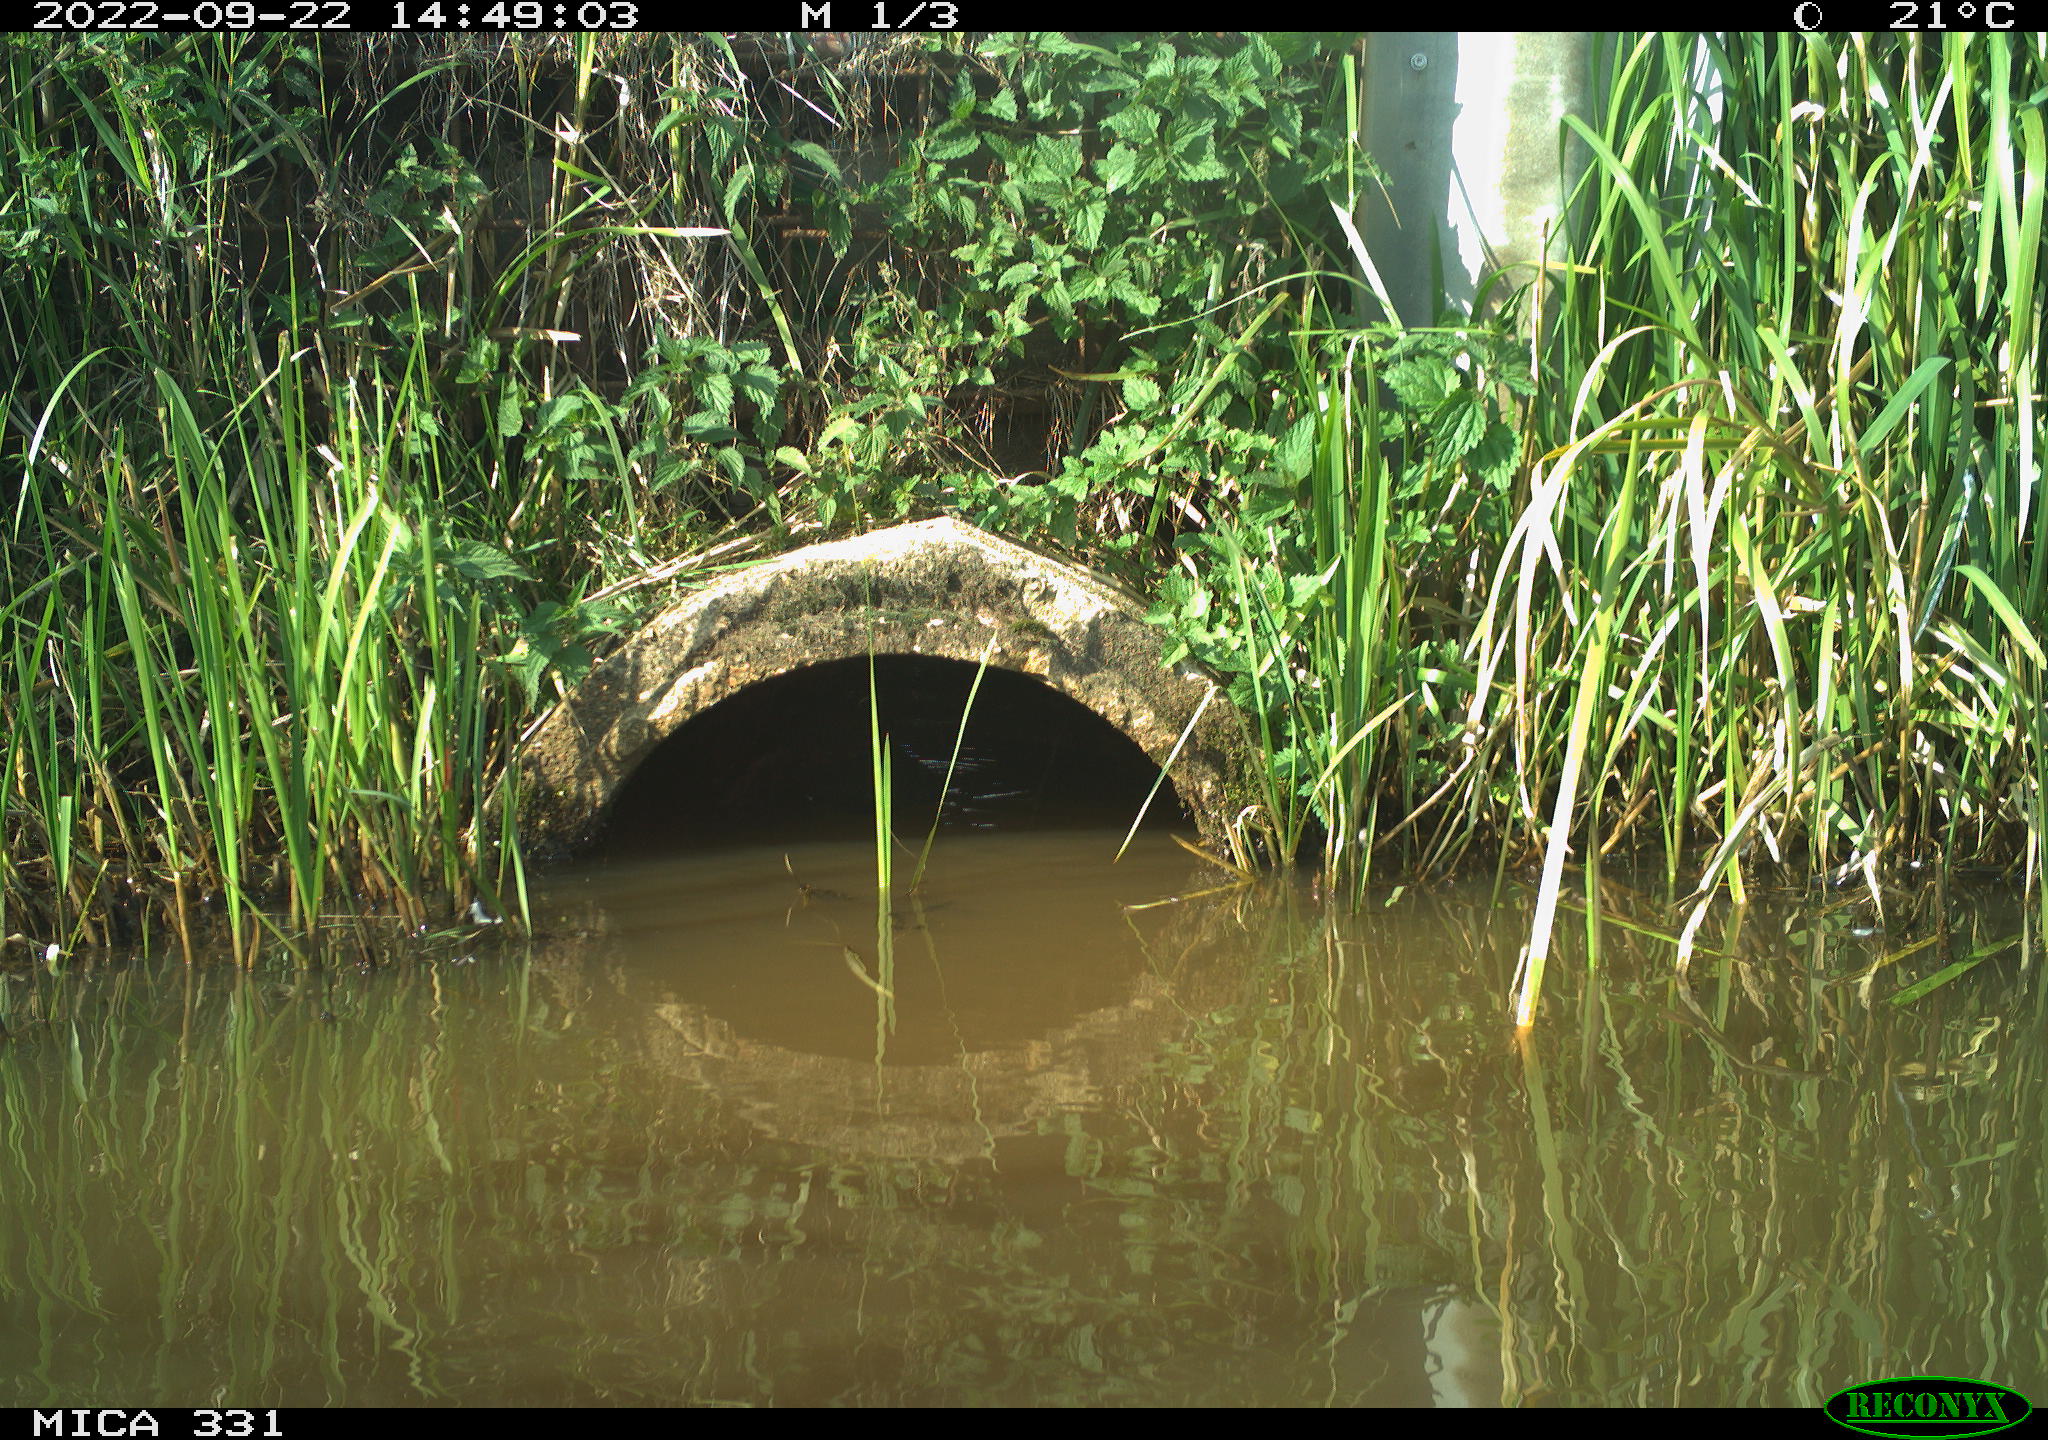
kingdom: Animalia
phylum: Chordata
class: Aves
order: Gruiformes
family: Rallidae
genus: Fulica
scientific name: Fulica atra
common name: Eurasian coot
